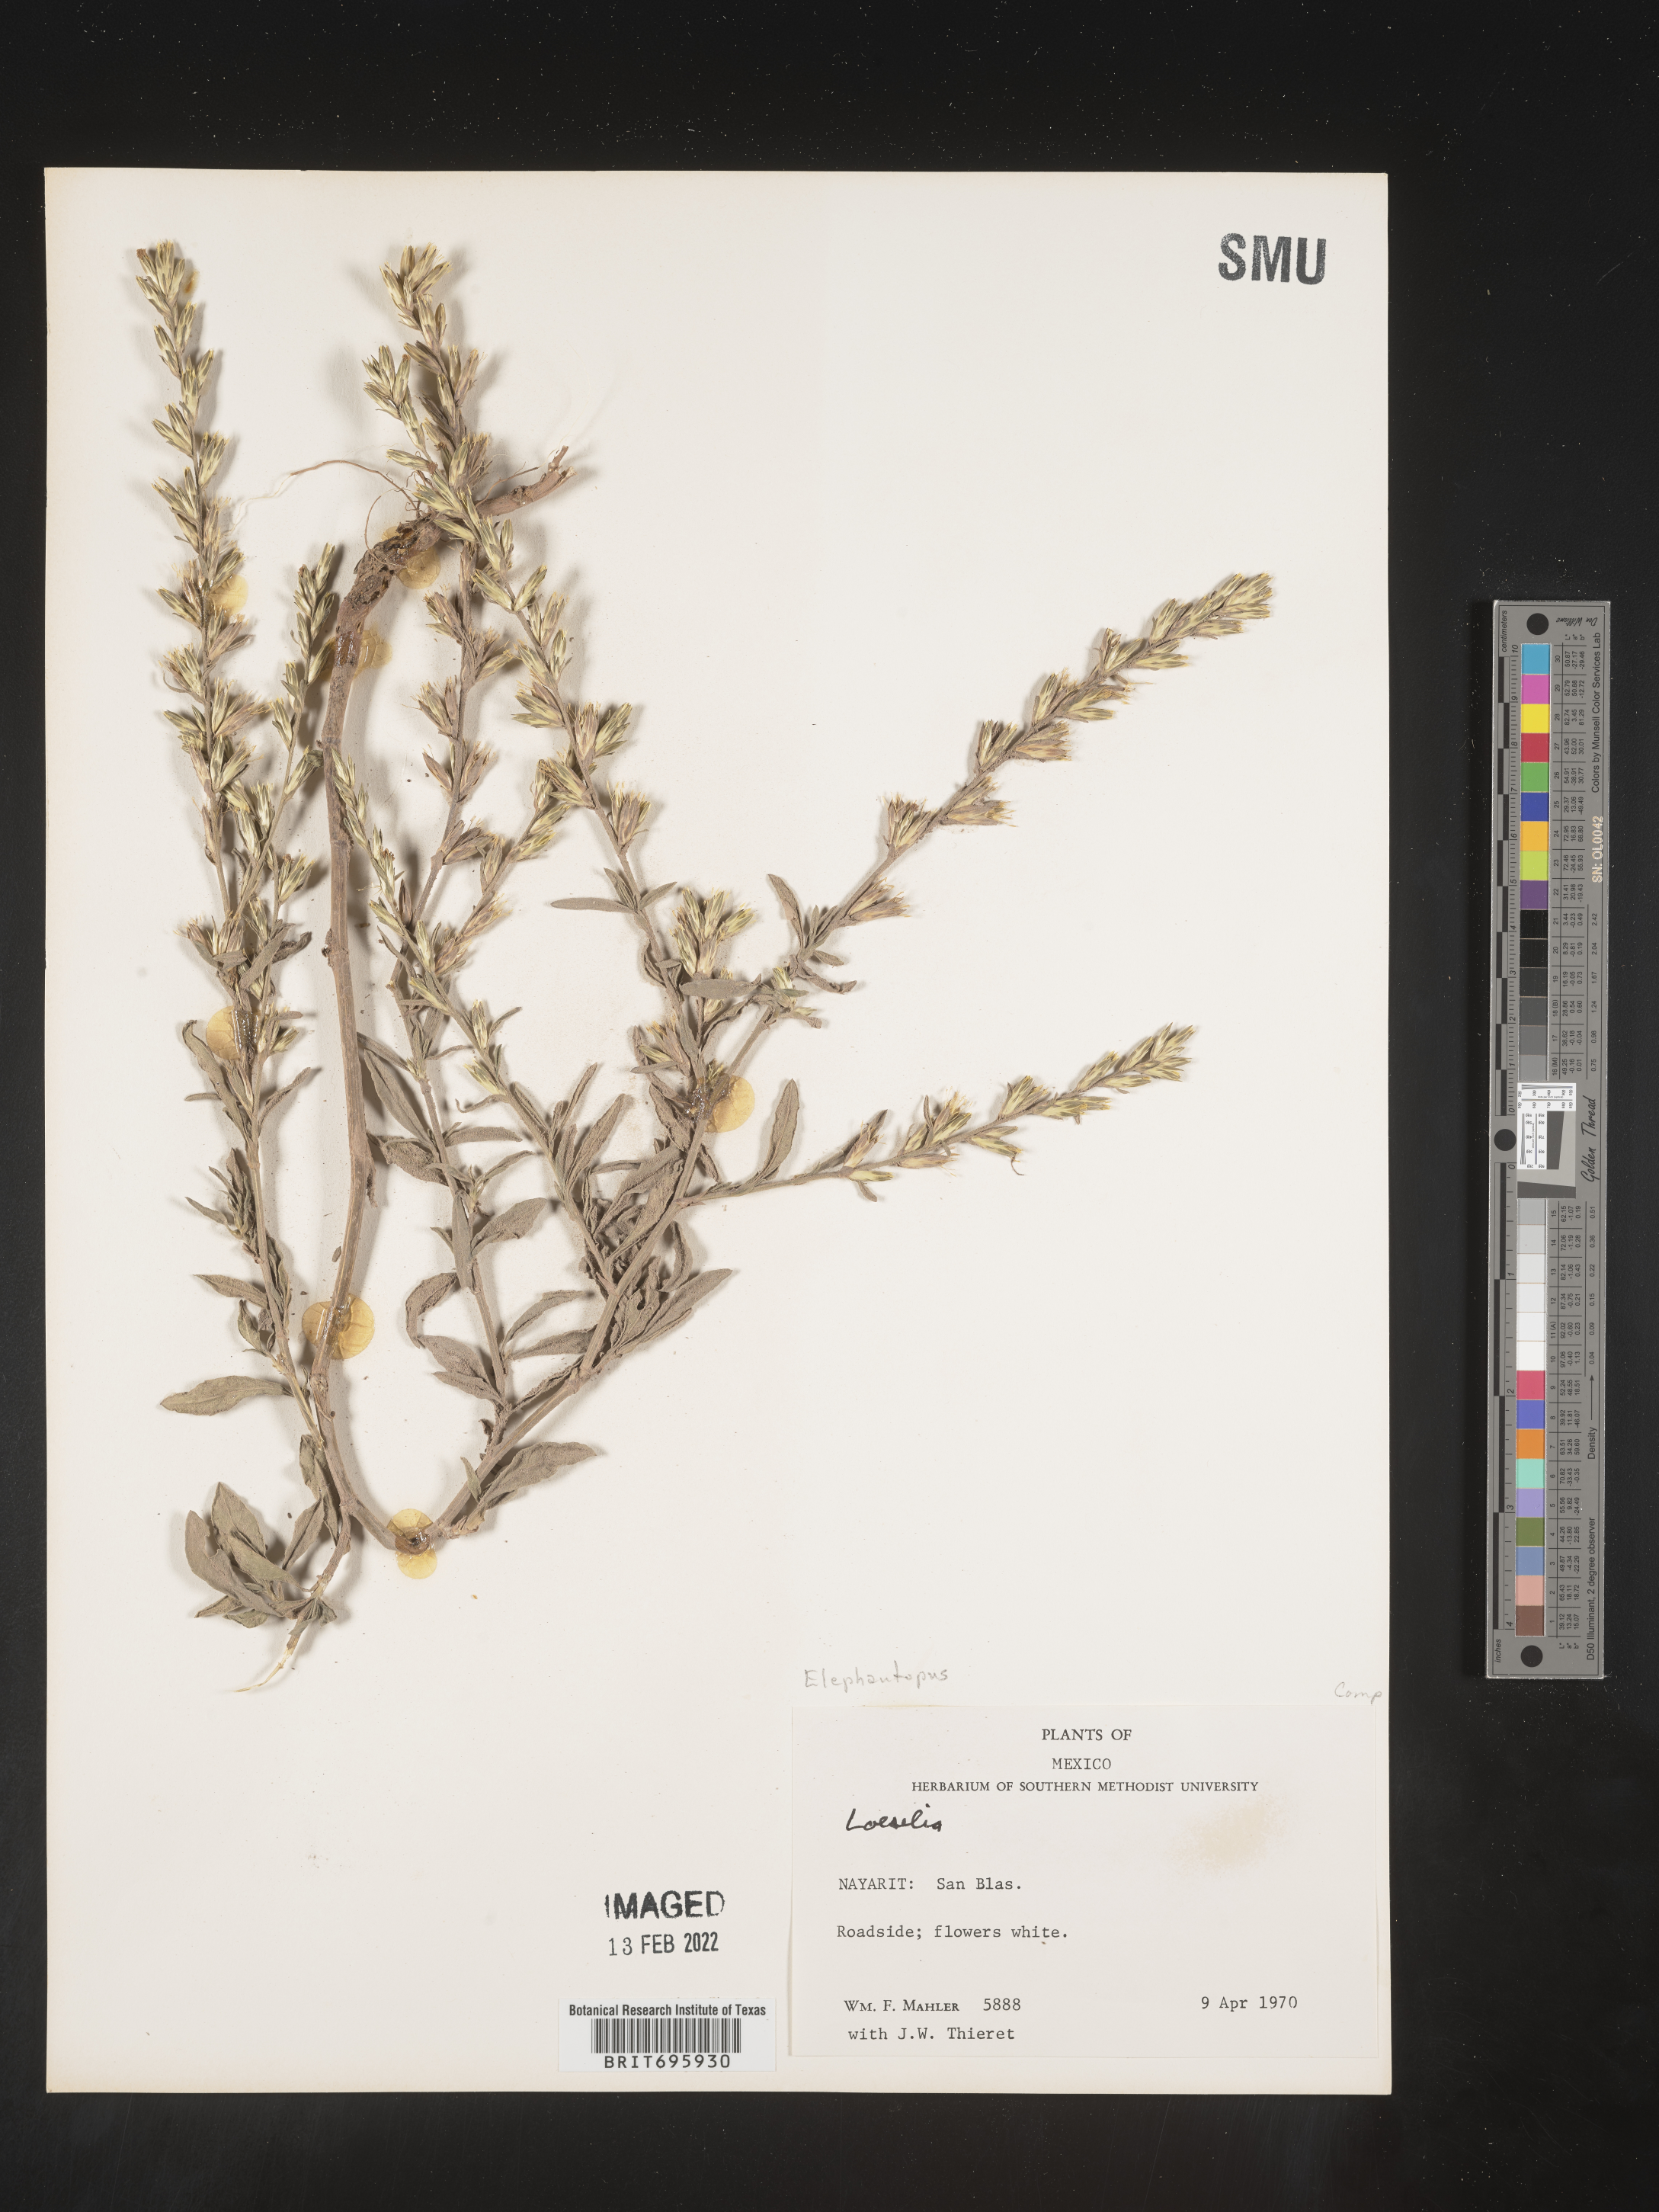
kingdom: Plantae
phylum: Tracheophyta
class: Magnoliopsida
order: Asterales
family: Asteraceae
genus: Elephantopus
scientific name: Elephantopus
